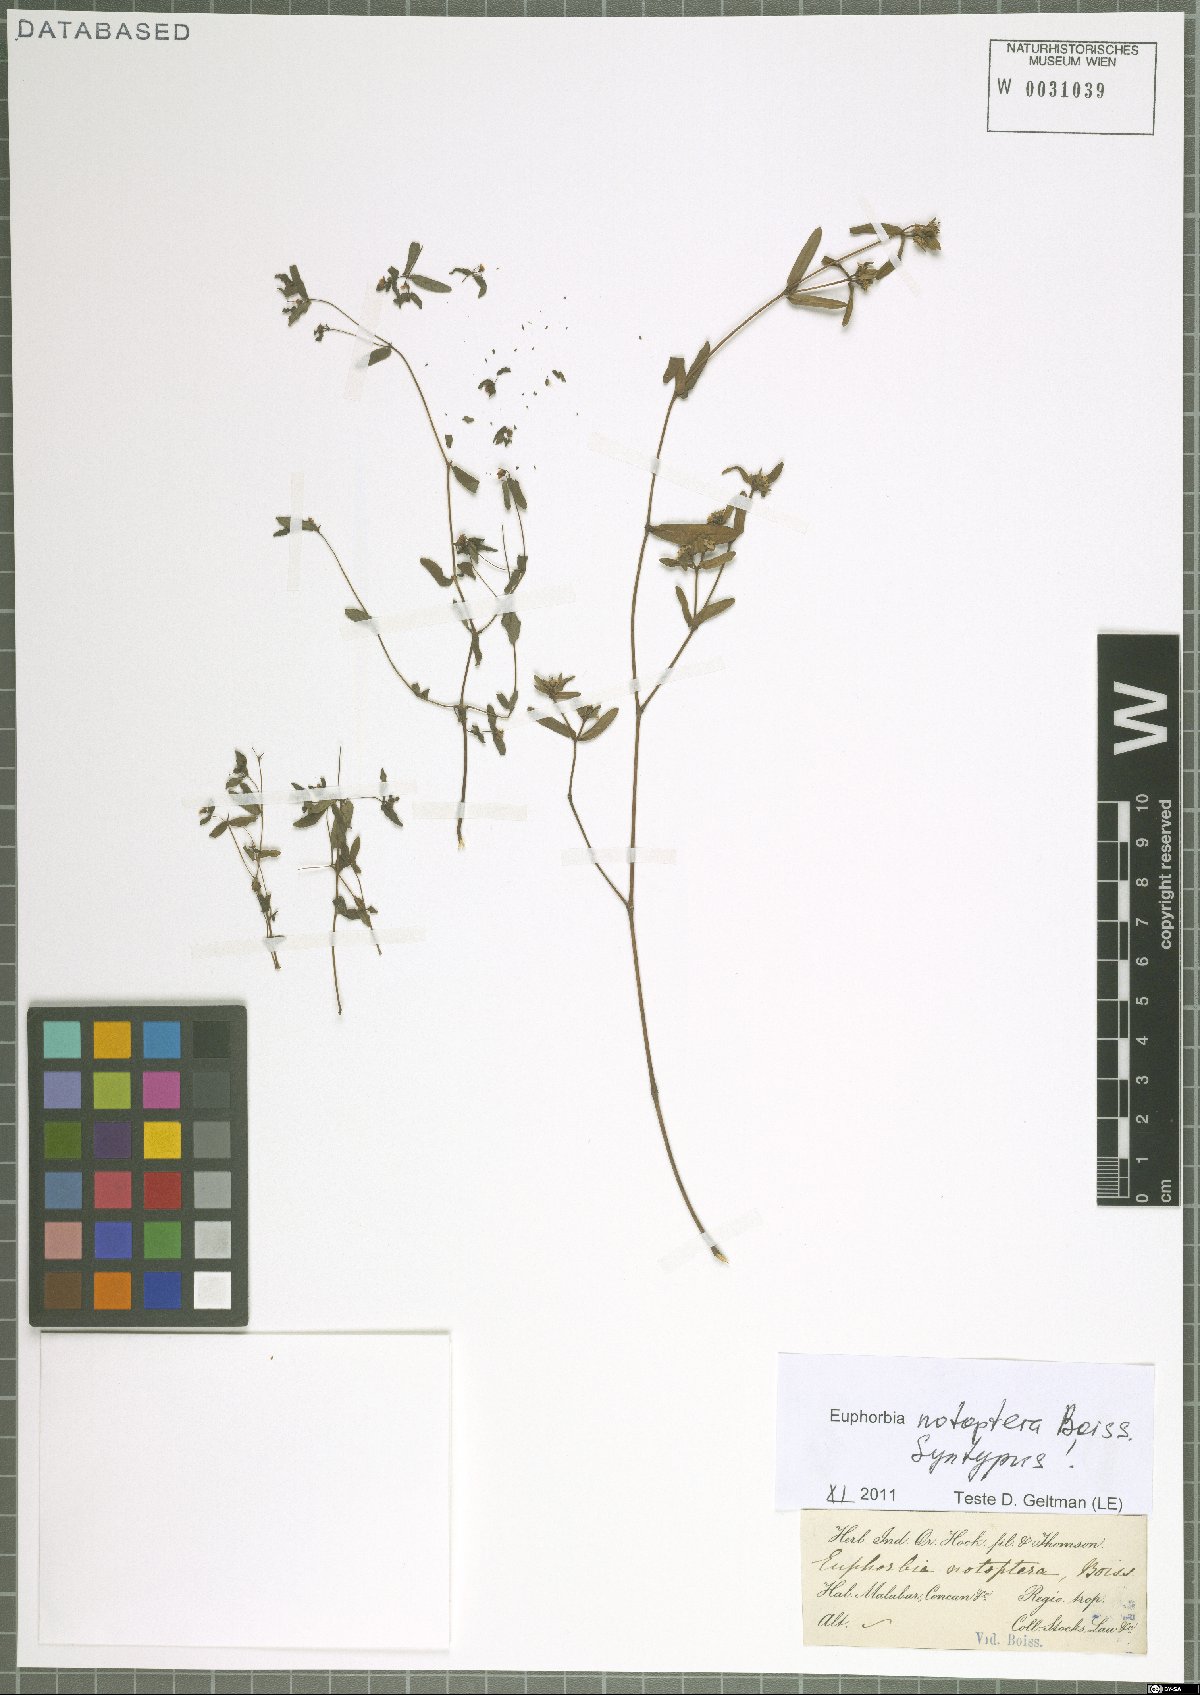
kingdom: Plantae
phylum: Tracheophyta
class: Magnoliopsida
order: Malpighiales
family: Euphorbiaceae
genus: Euphorbia
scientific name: Euphorbia notoptera
